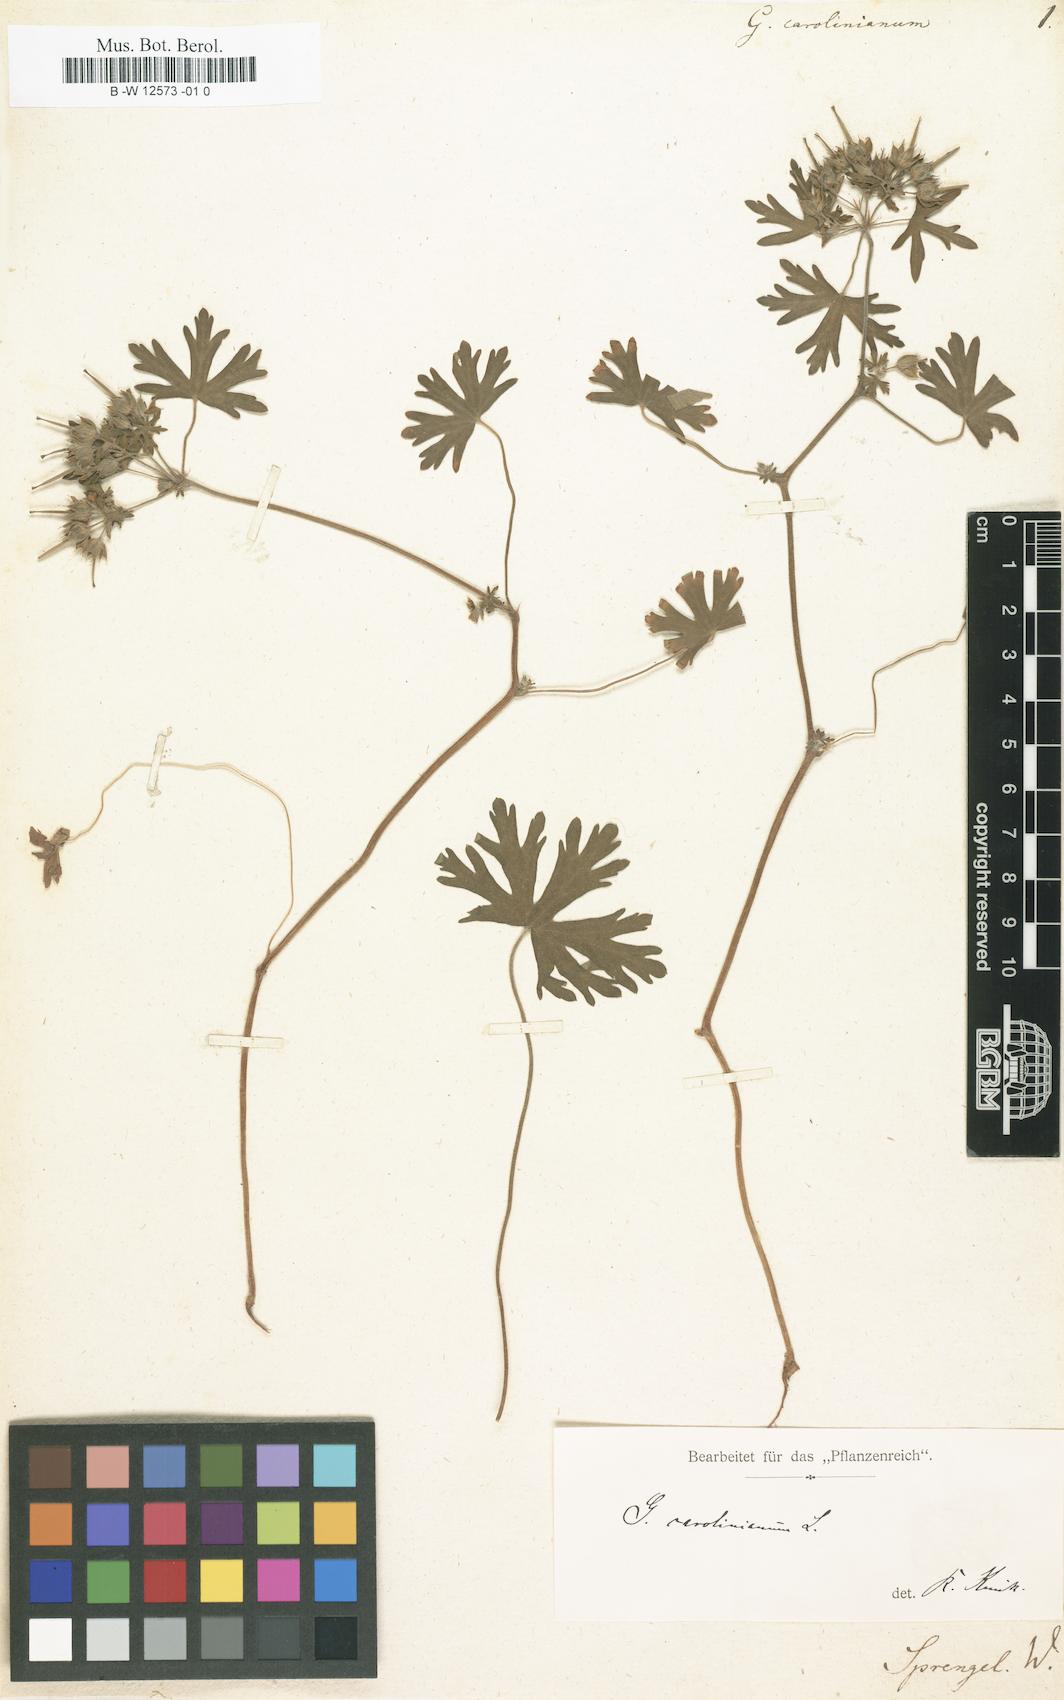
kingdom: Plantae
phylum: Tracheophyta
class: Magnoliopsida
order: Geraniales
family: Geraniaceae
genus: Geranium
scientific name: Geranium carolinianum
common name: Carolina crane's-bill
